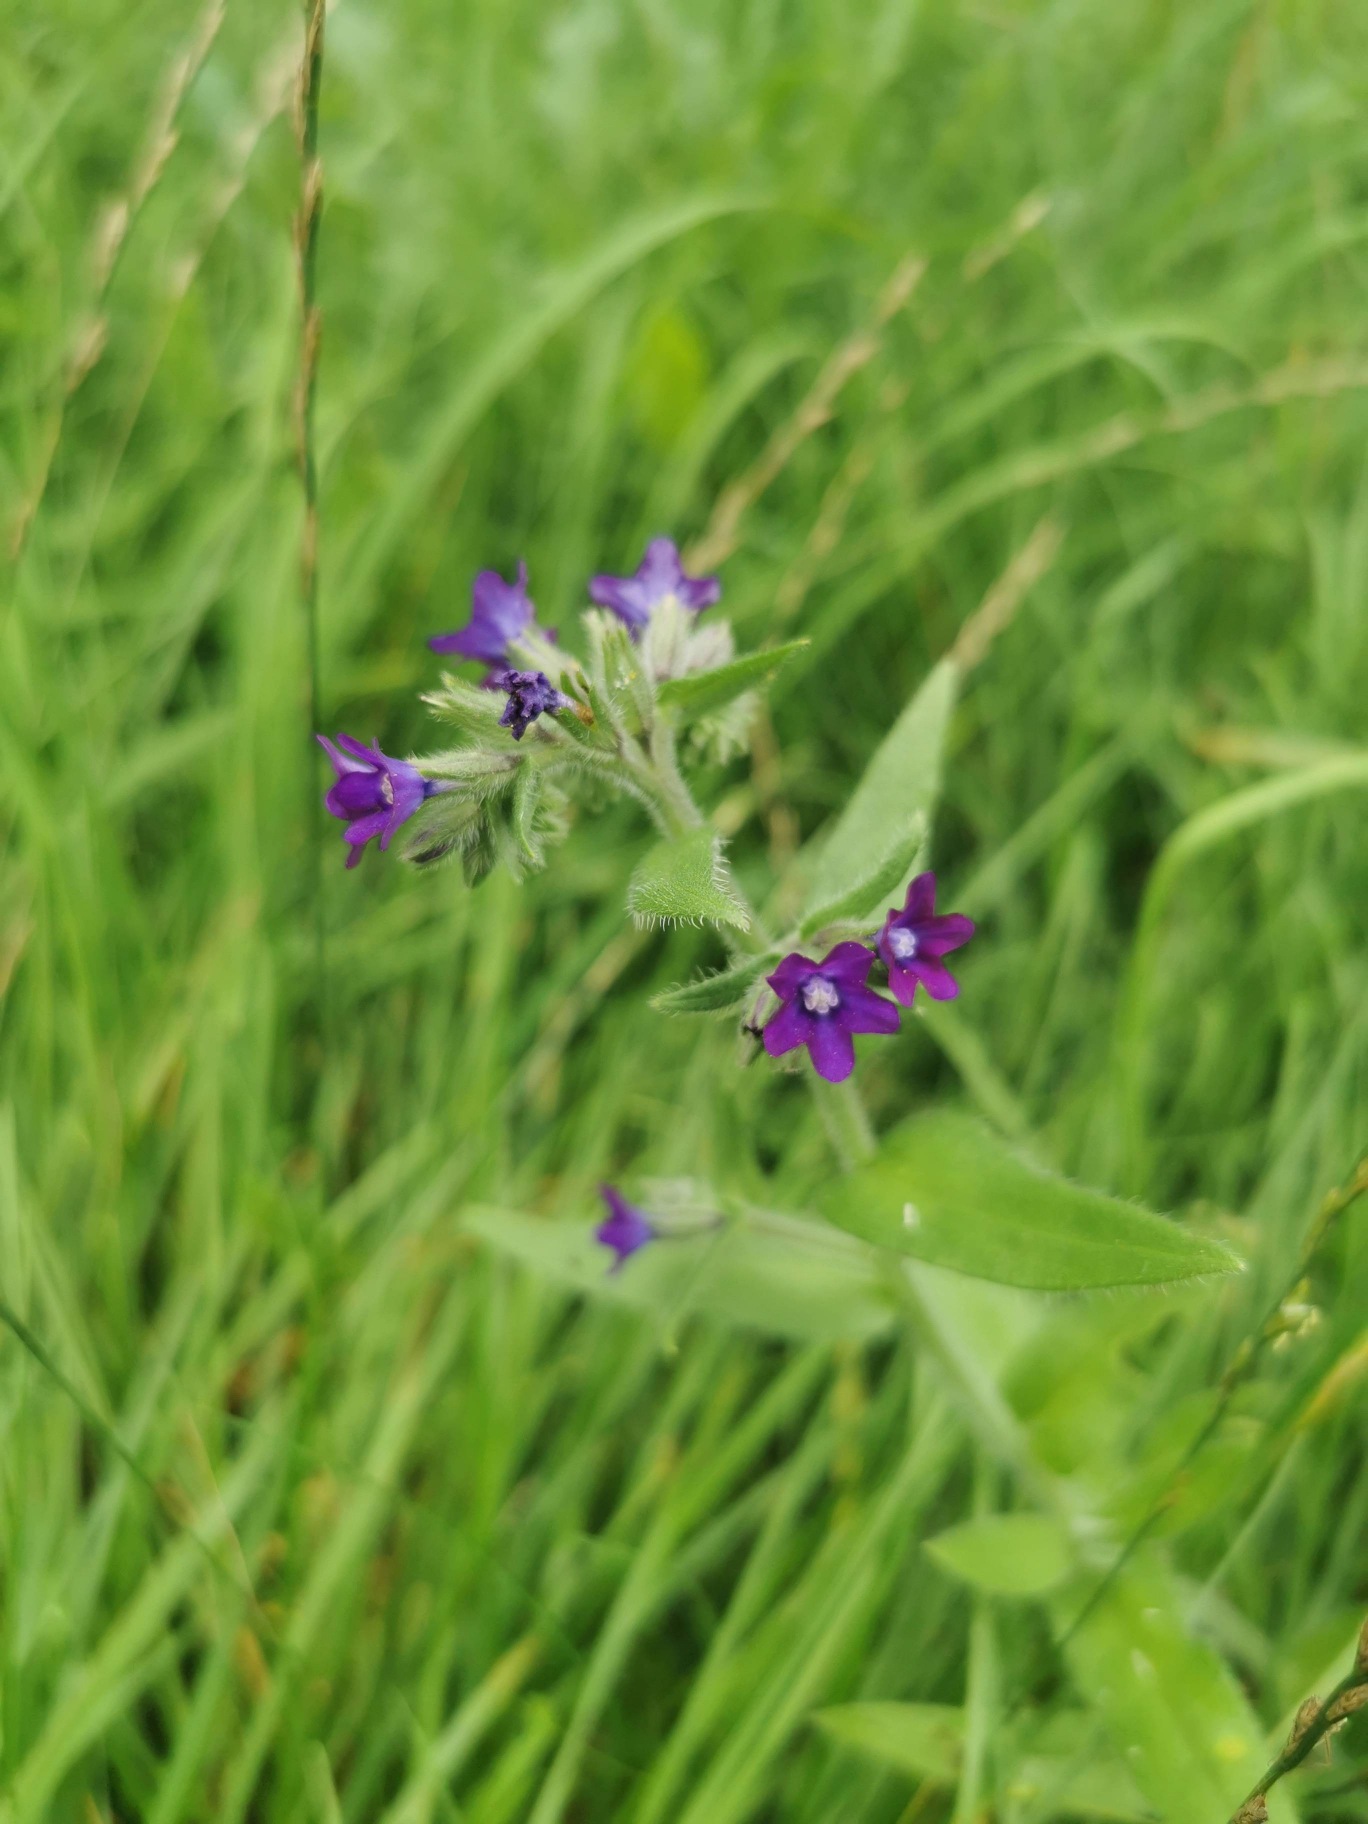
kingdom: Plantae
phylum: Tracheophyta
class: Magnoliopsida
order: Boraginales
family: Boraginaceae
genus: Anchusa
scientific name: Anchusa officinalis
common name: Læge-oksetunge
